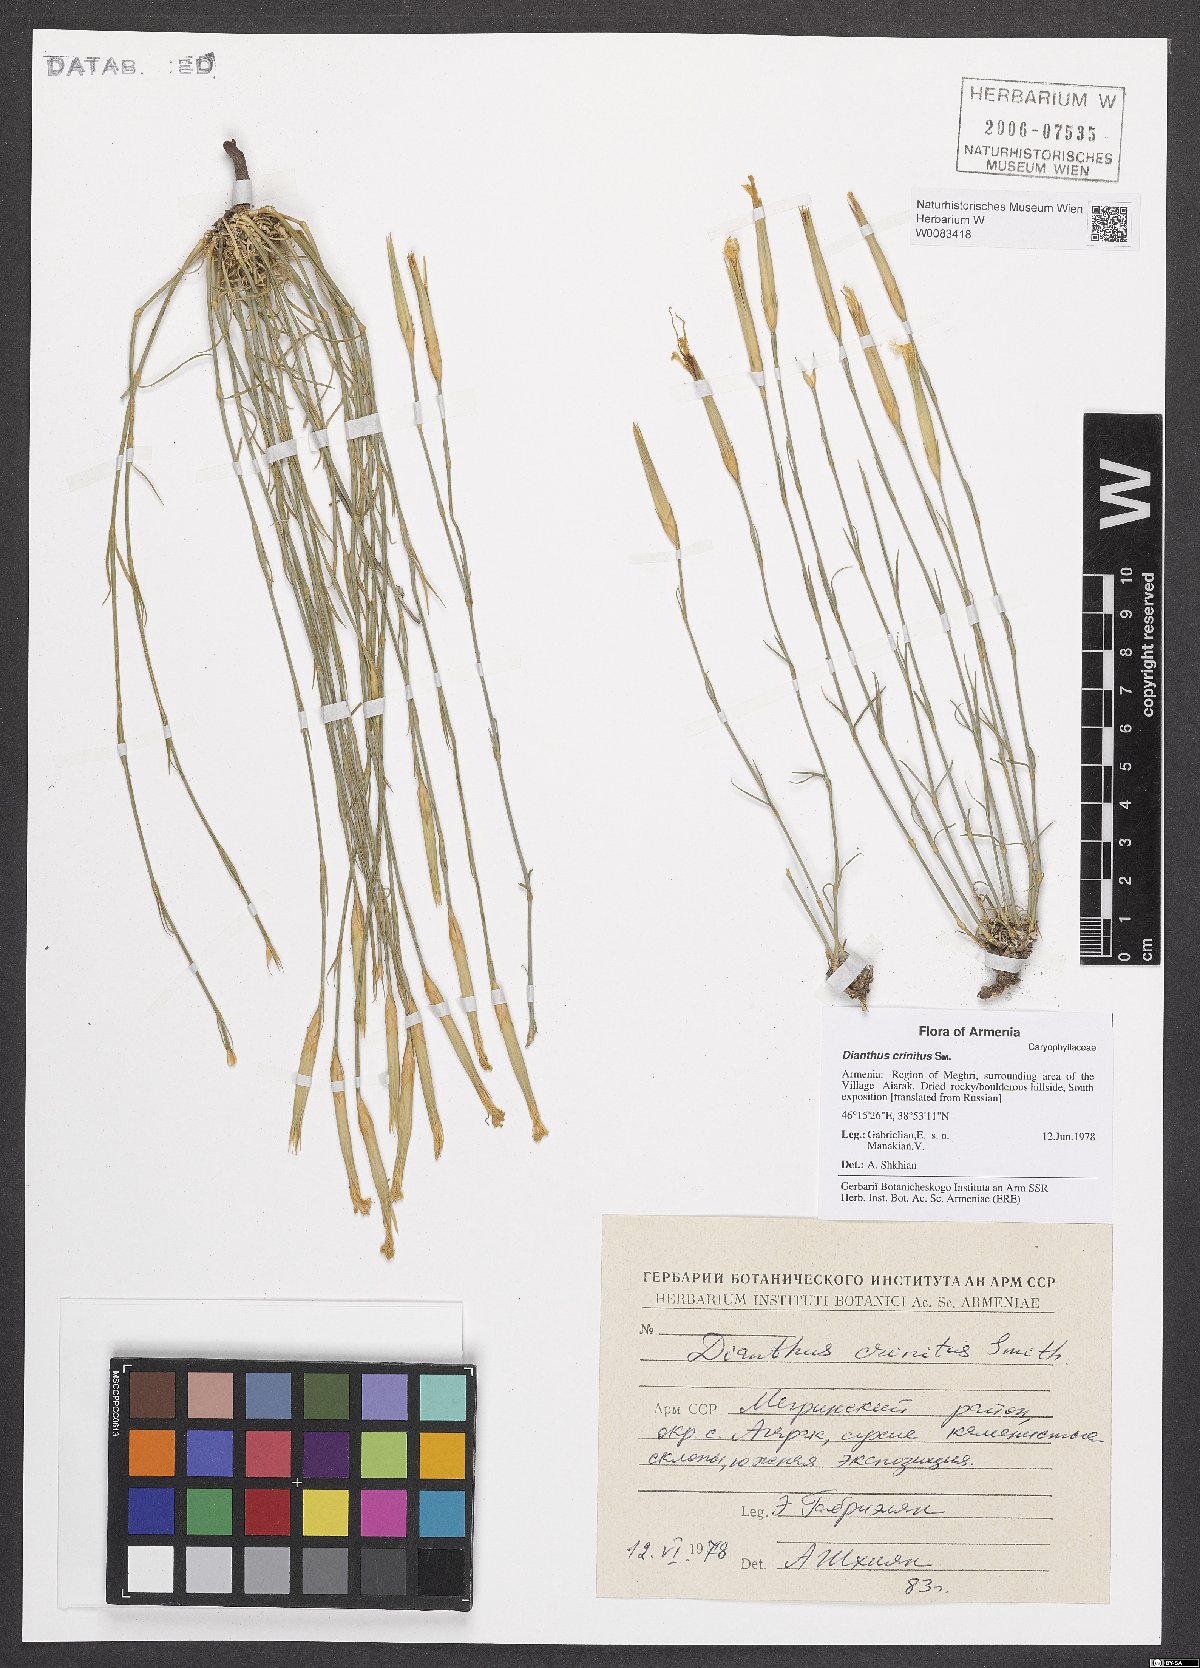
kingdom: Plantae
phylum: Tracheophyta
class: Magnoliopsida
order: Caryophyllales
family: Caryophyllaceae
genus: Dianthus
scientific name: Dianthus crinitus
